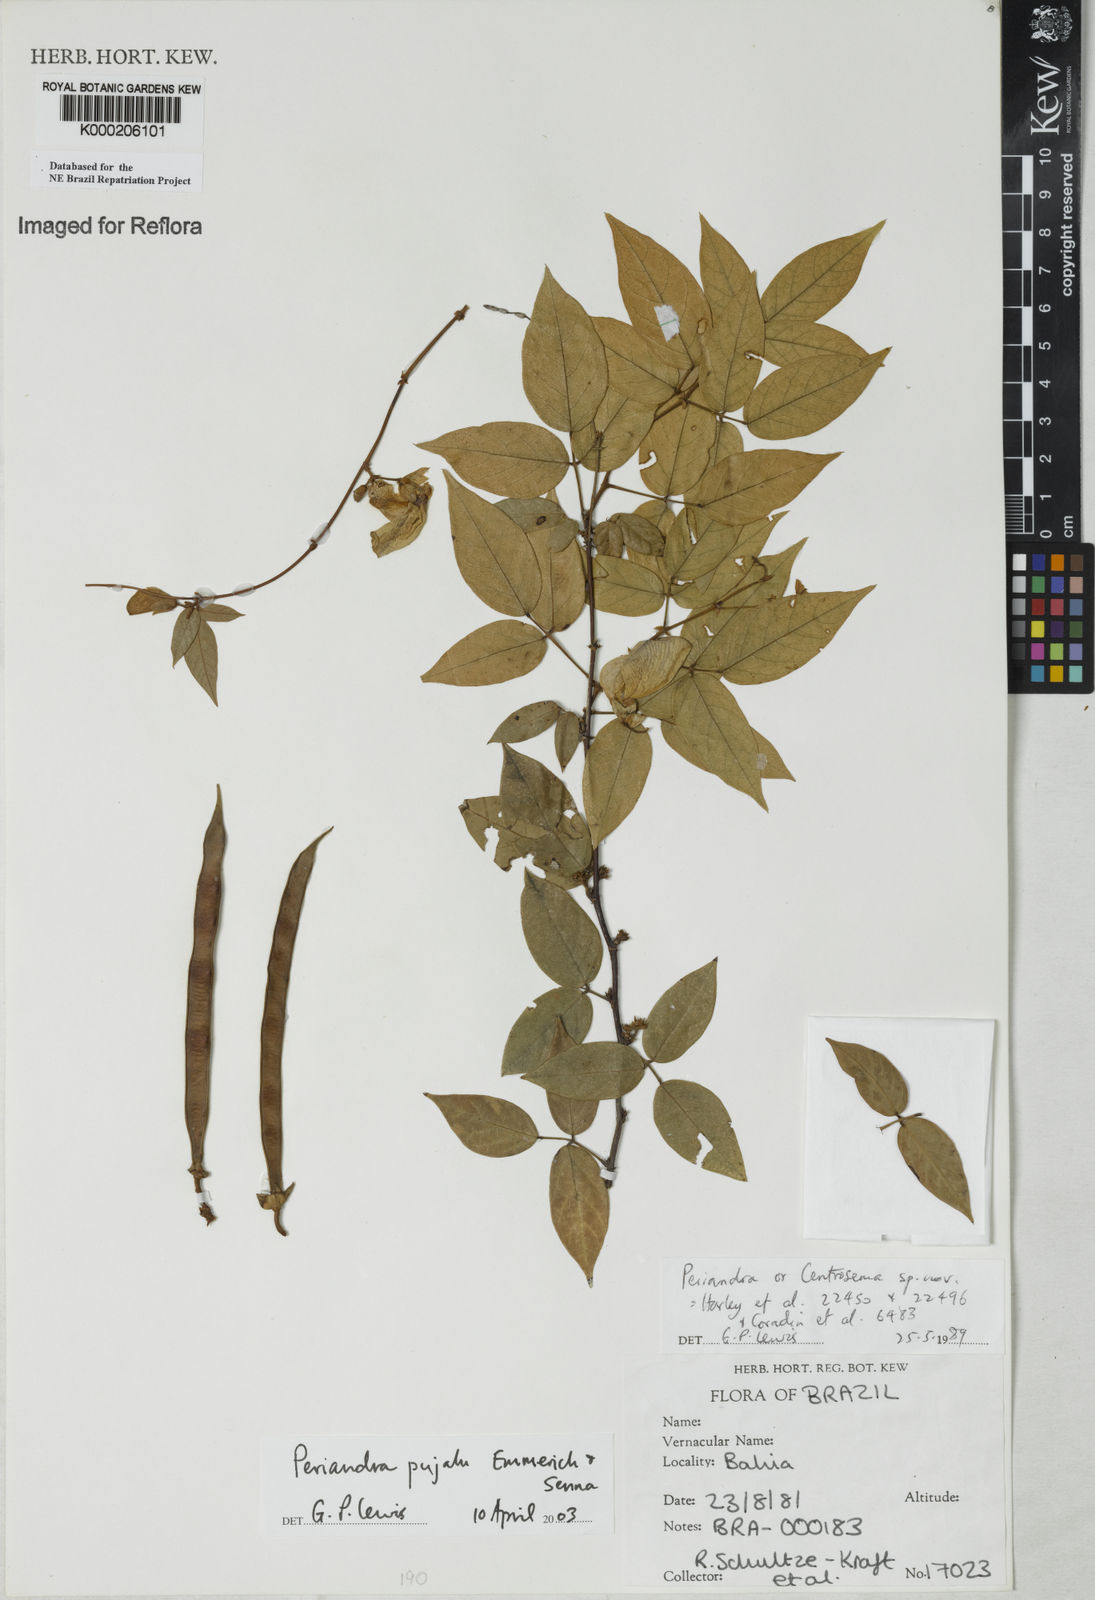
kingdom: Plantae
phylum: Tracheophyta
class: Magnoliopsida
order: Fabales
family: Fabaceae
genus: Periandra
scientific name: Periandra pujalu
